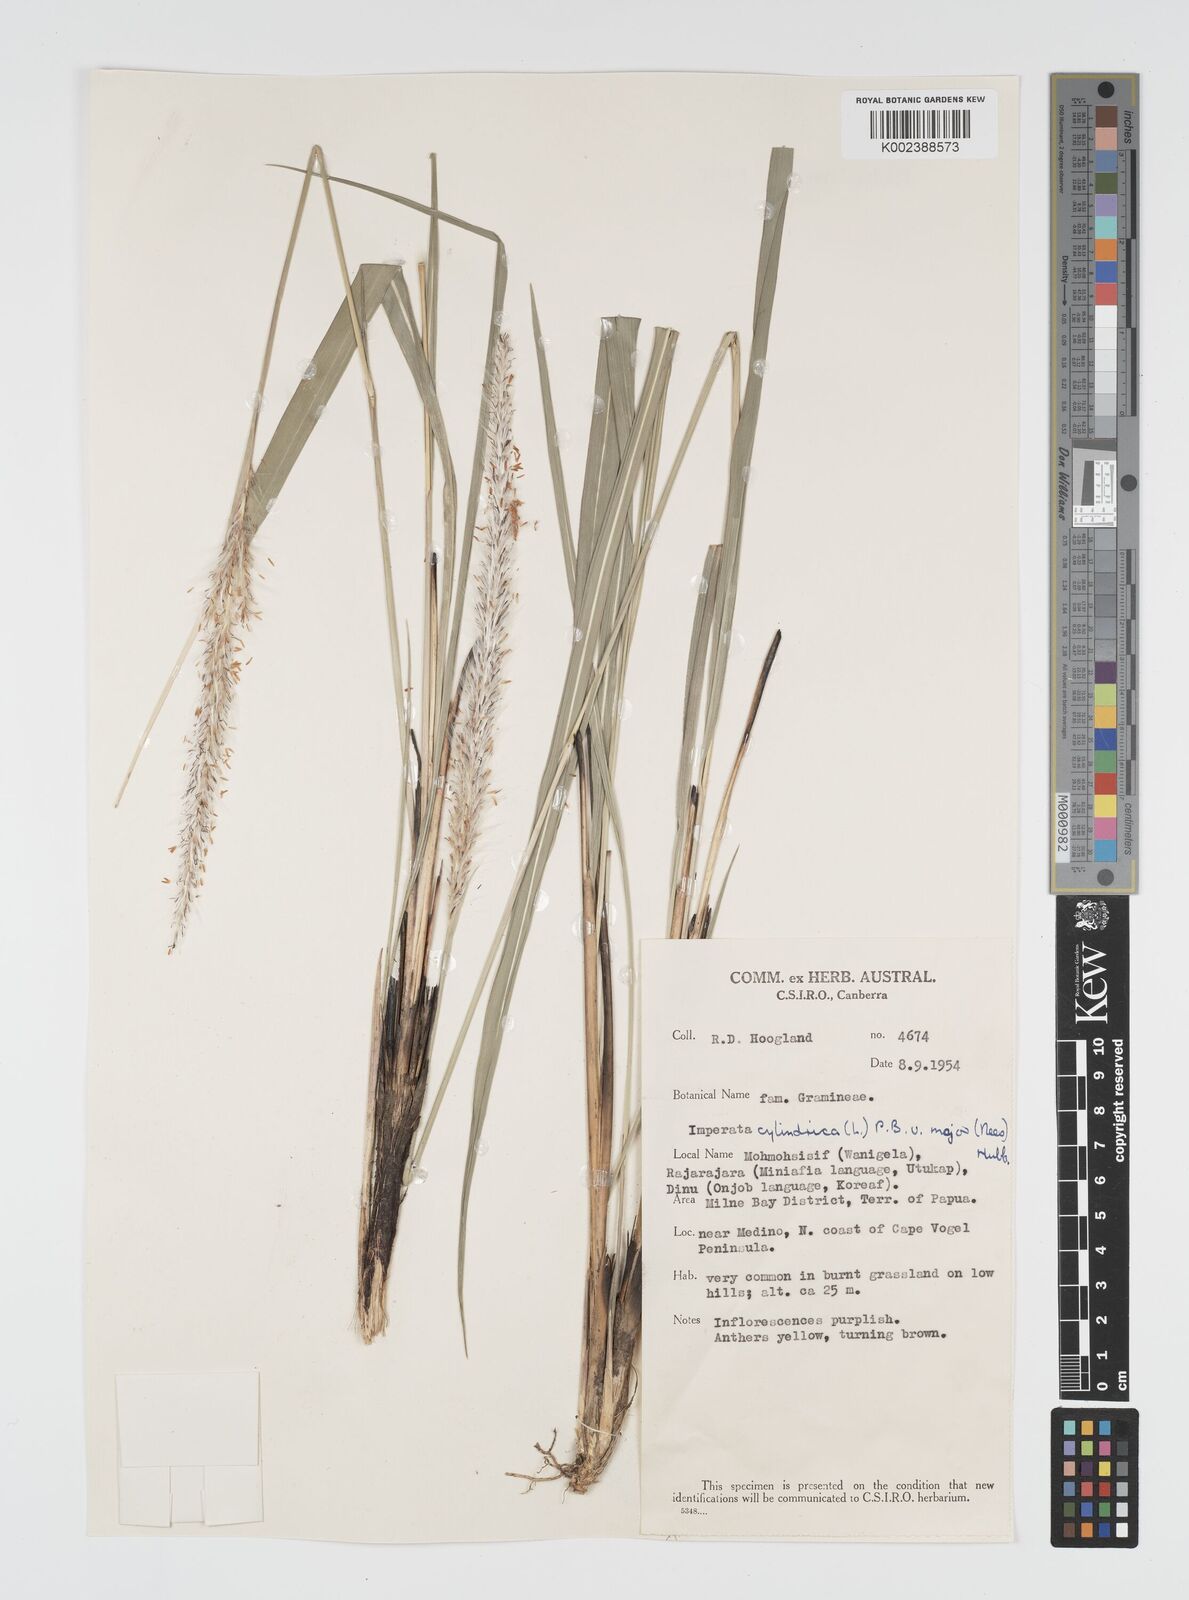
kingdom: Plantae
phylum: Tracheophyta
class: Liliopsida
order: Poales
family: Poaceae
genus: Imperata
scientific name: Imperata cylindrica
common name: Cogongrass
